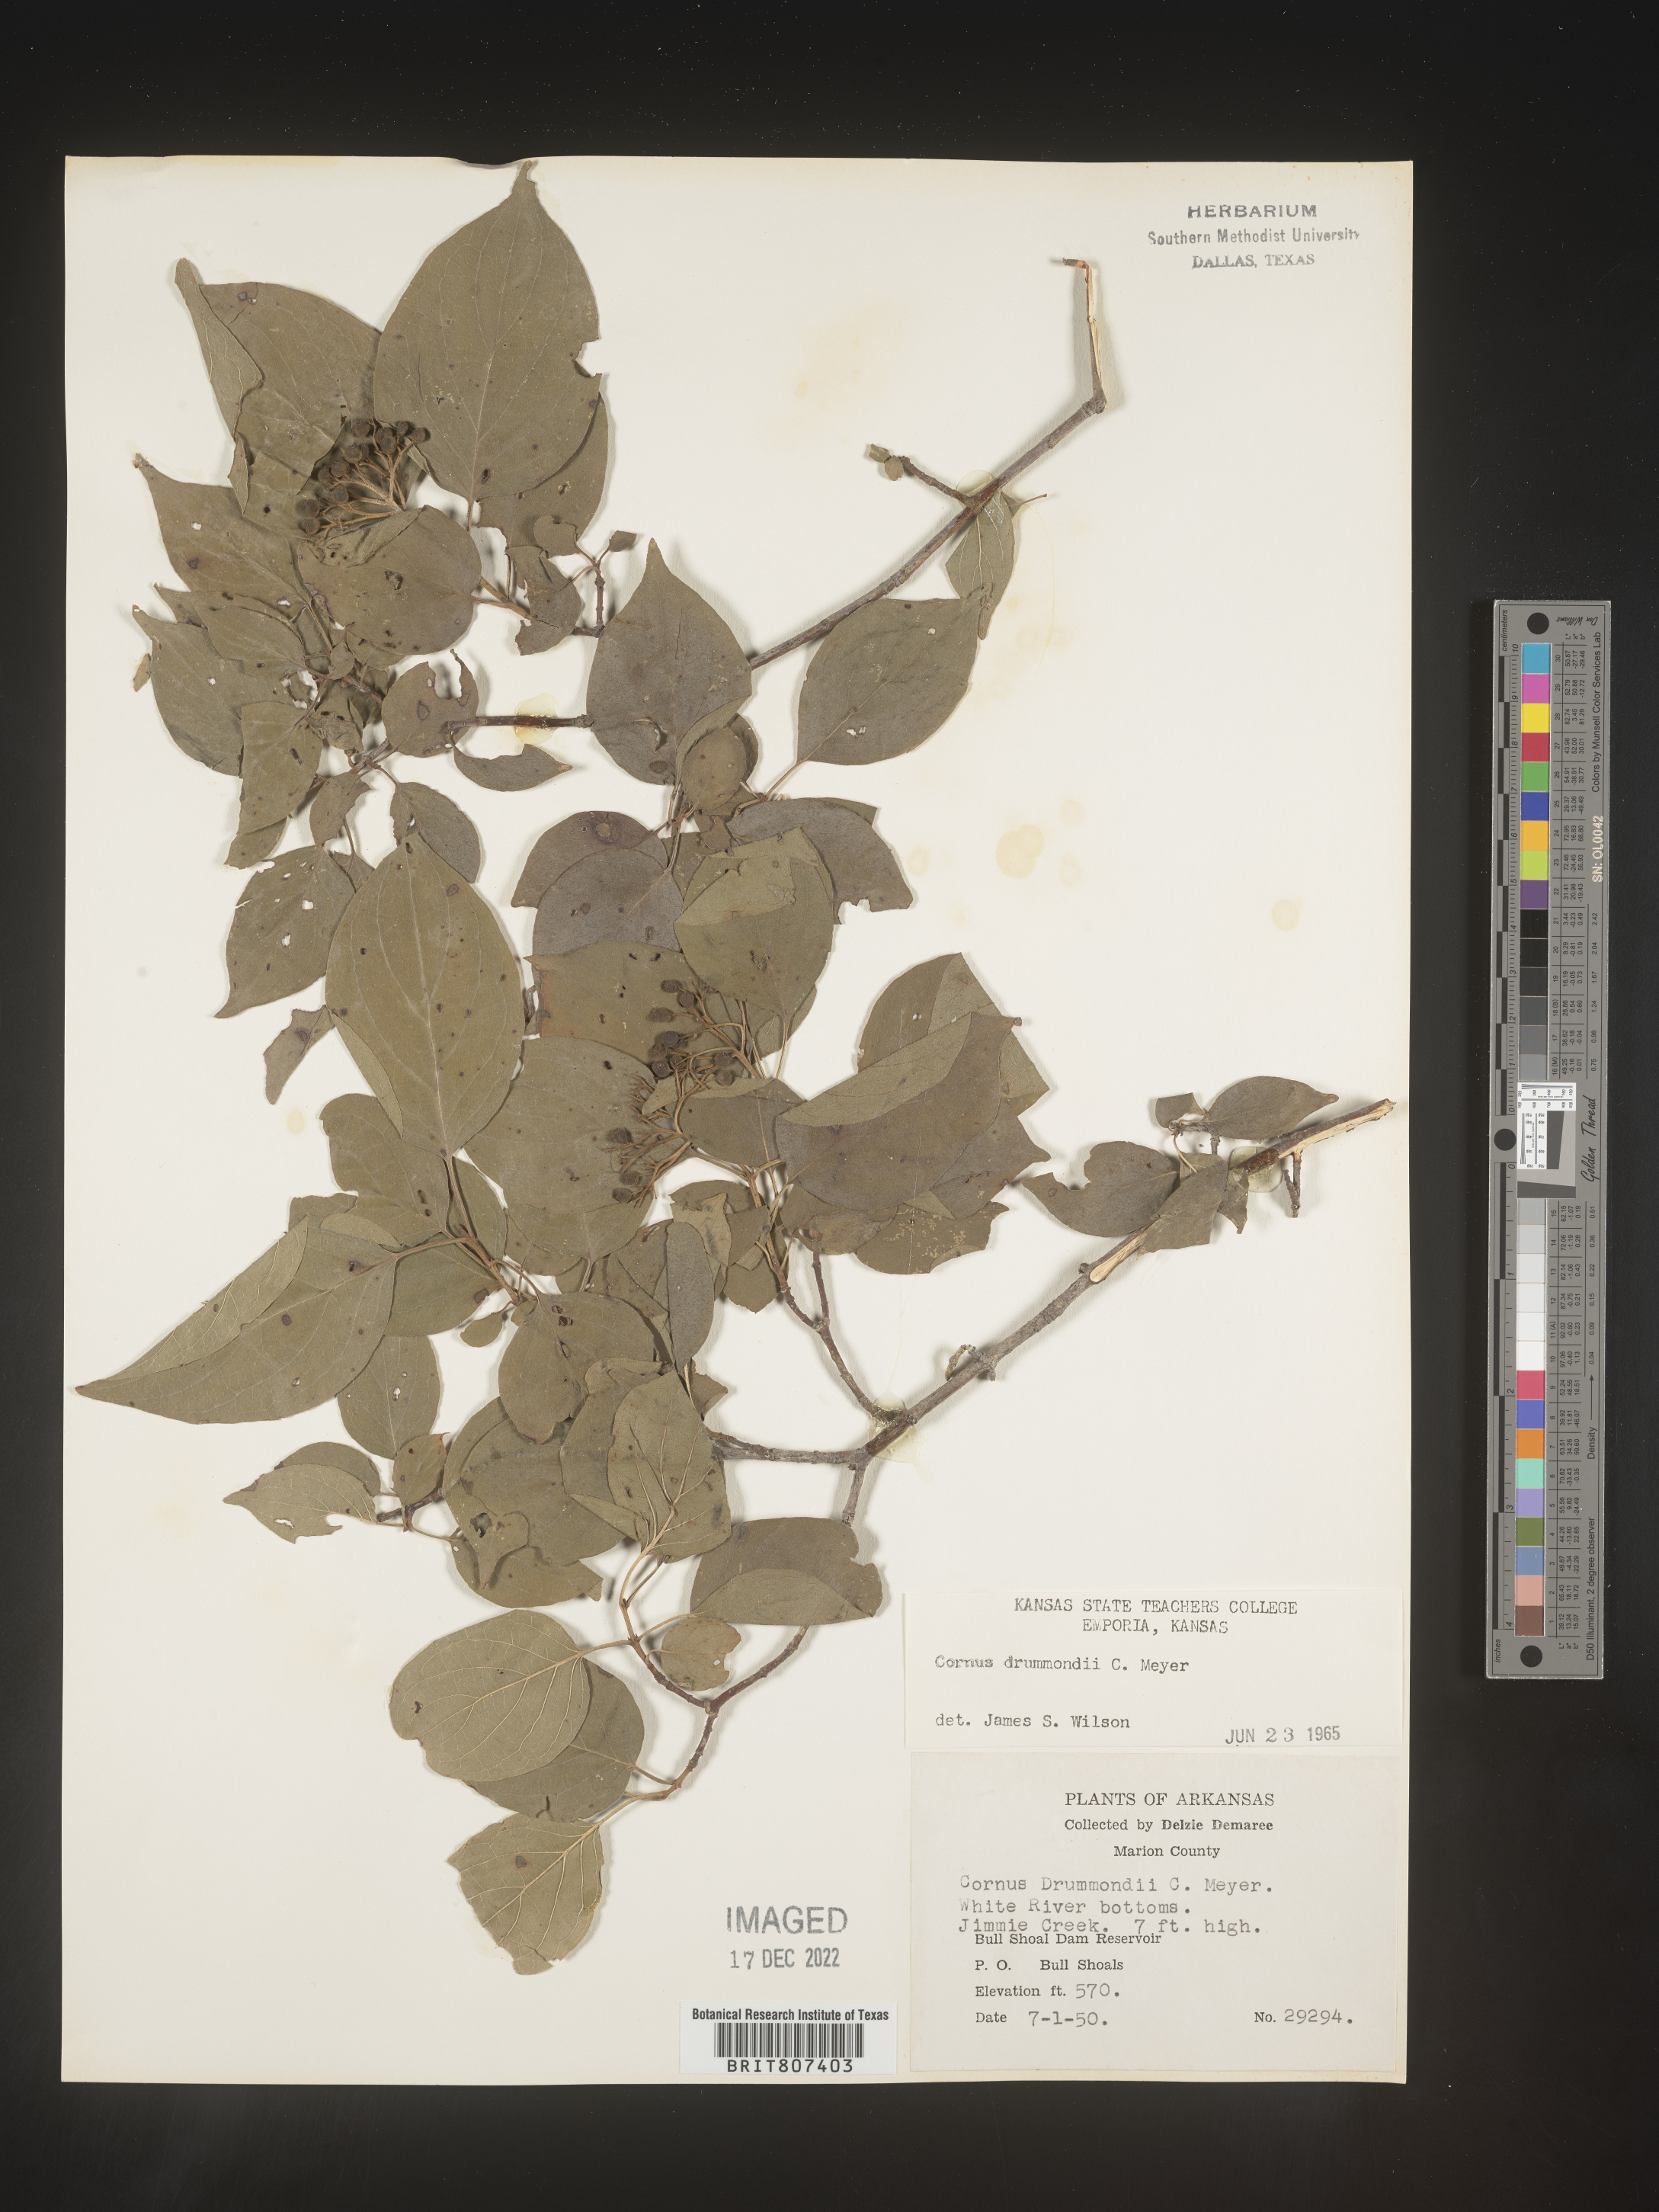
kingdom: Plantae
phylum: Tracheophyta
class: Magnoliopsida
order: Cornales
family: Cornaceae
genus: Cornus
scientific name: Cornus drummondii
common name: Rough-leaf dogwood
